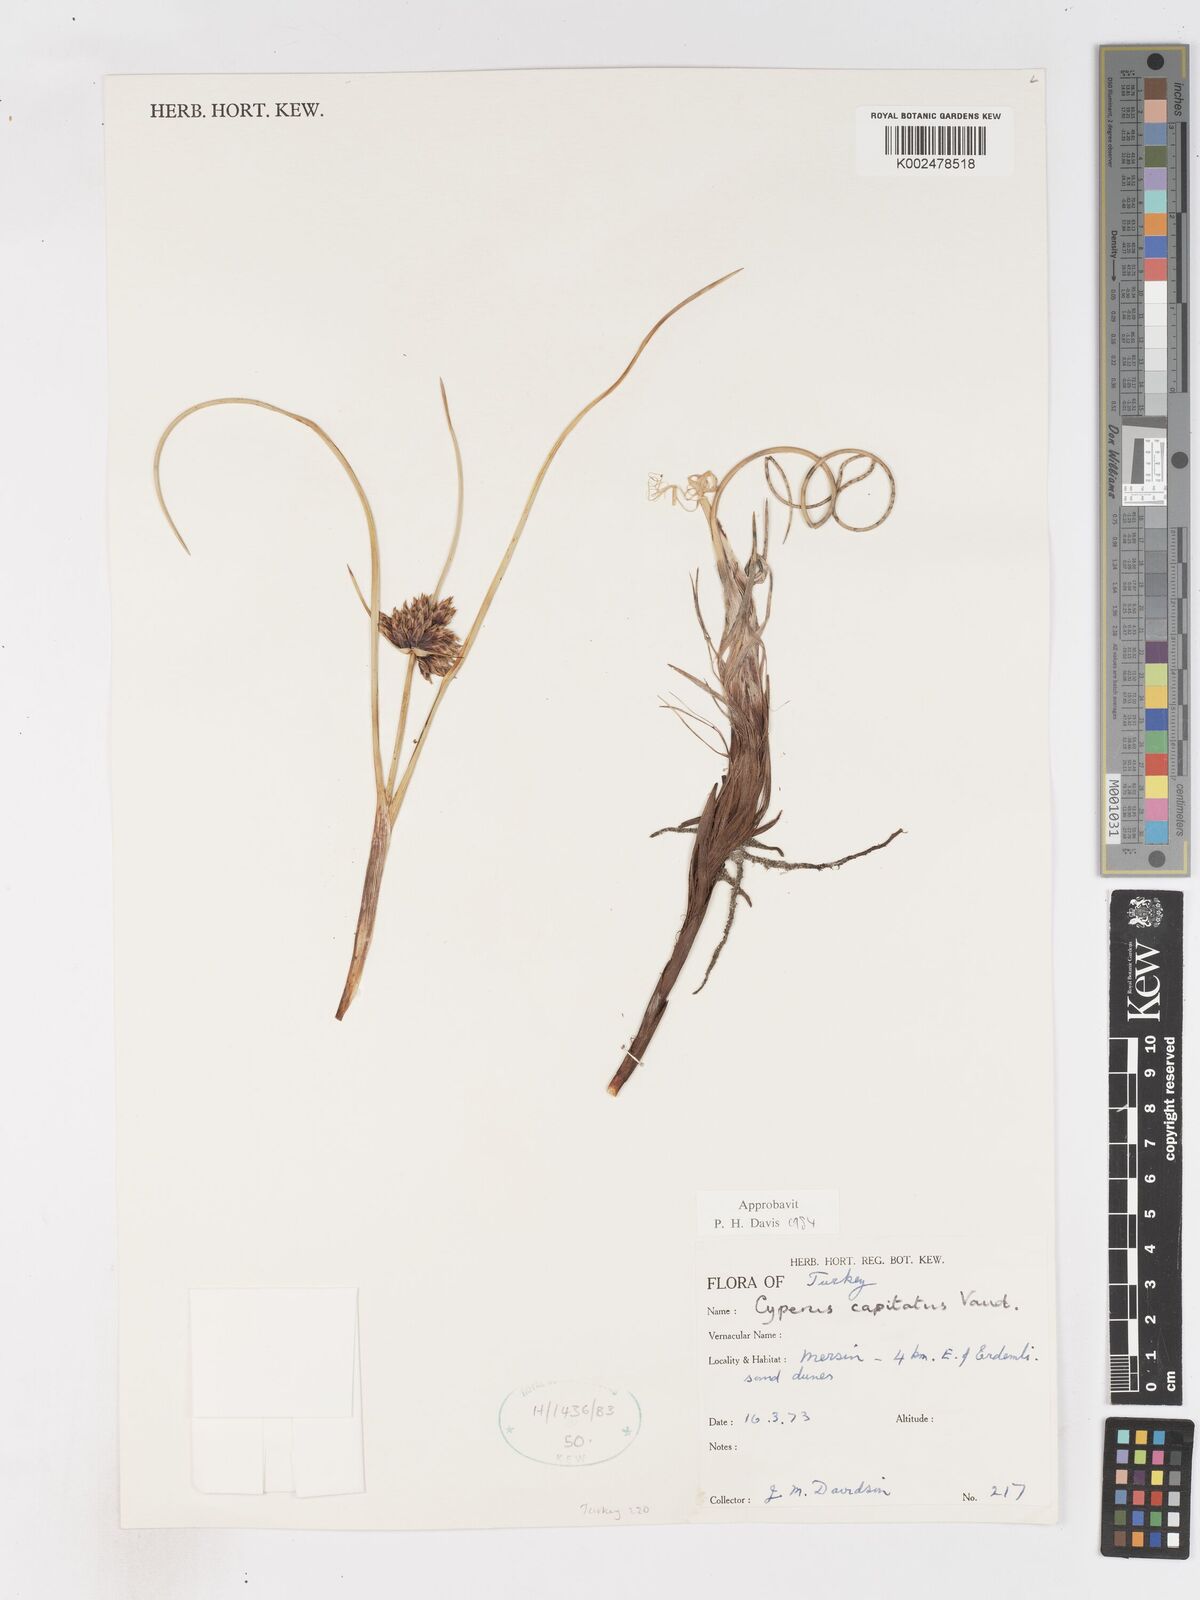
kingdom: Plantae
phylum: Tracheophyta
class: Liliopsida
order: Poales
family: Cyperaceae
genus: Cyperus
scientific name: Cyperus capitatus
